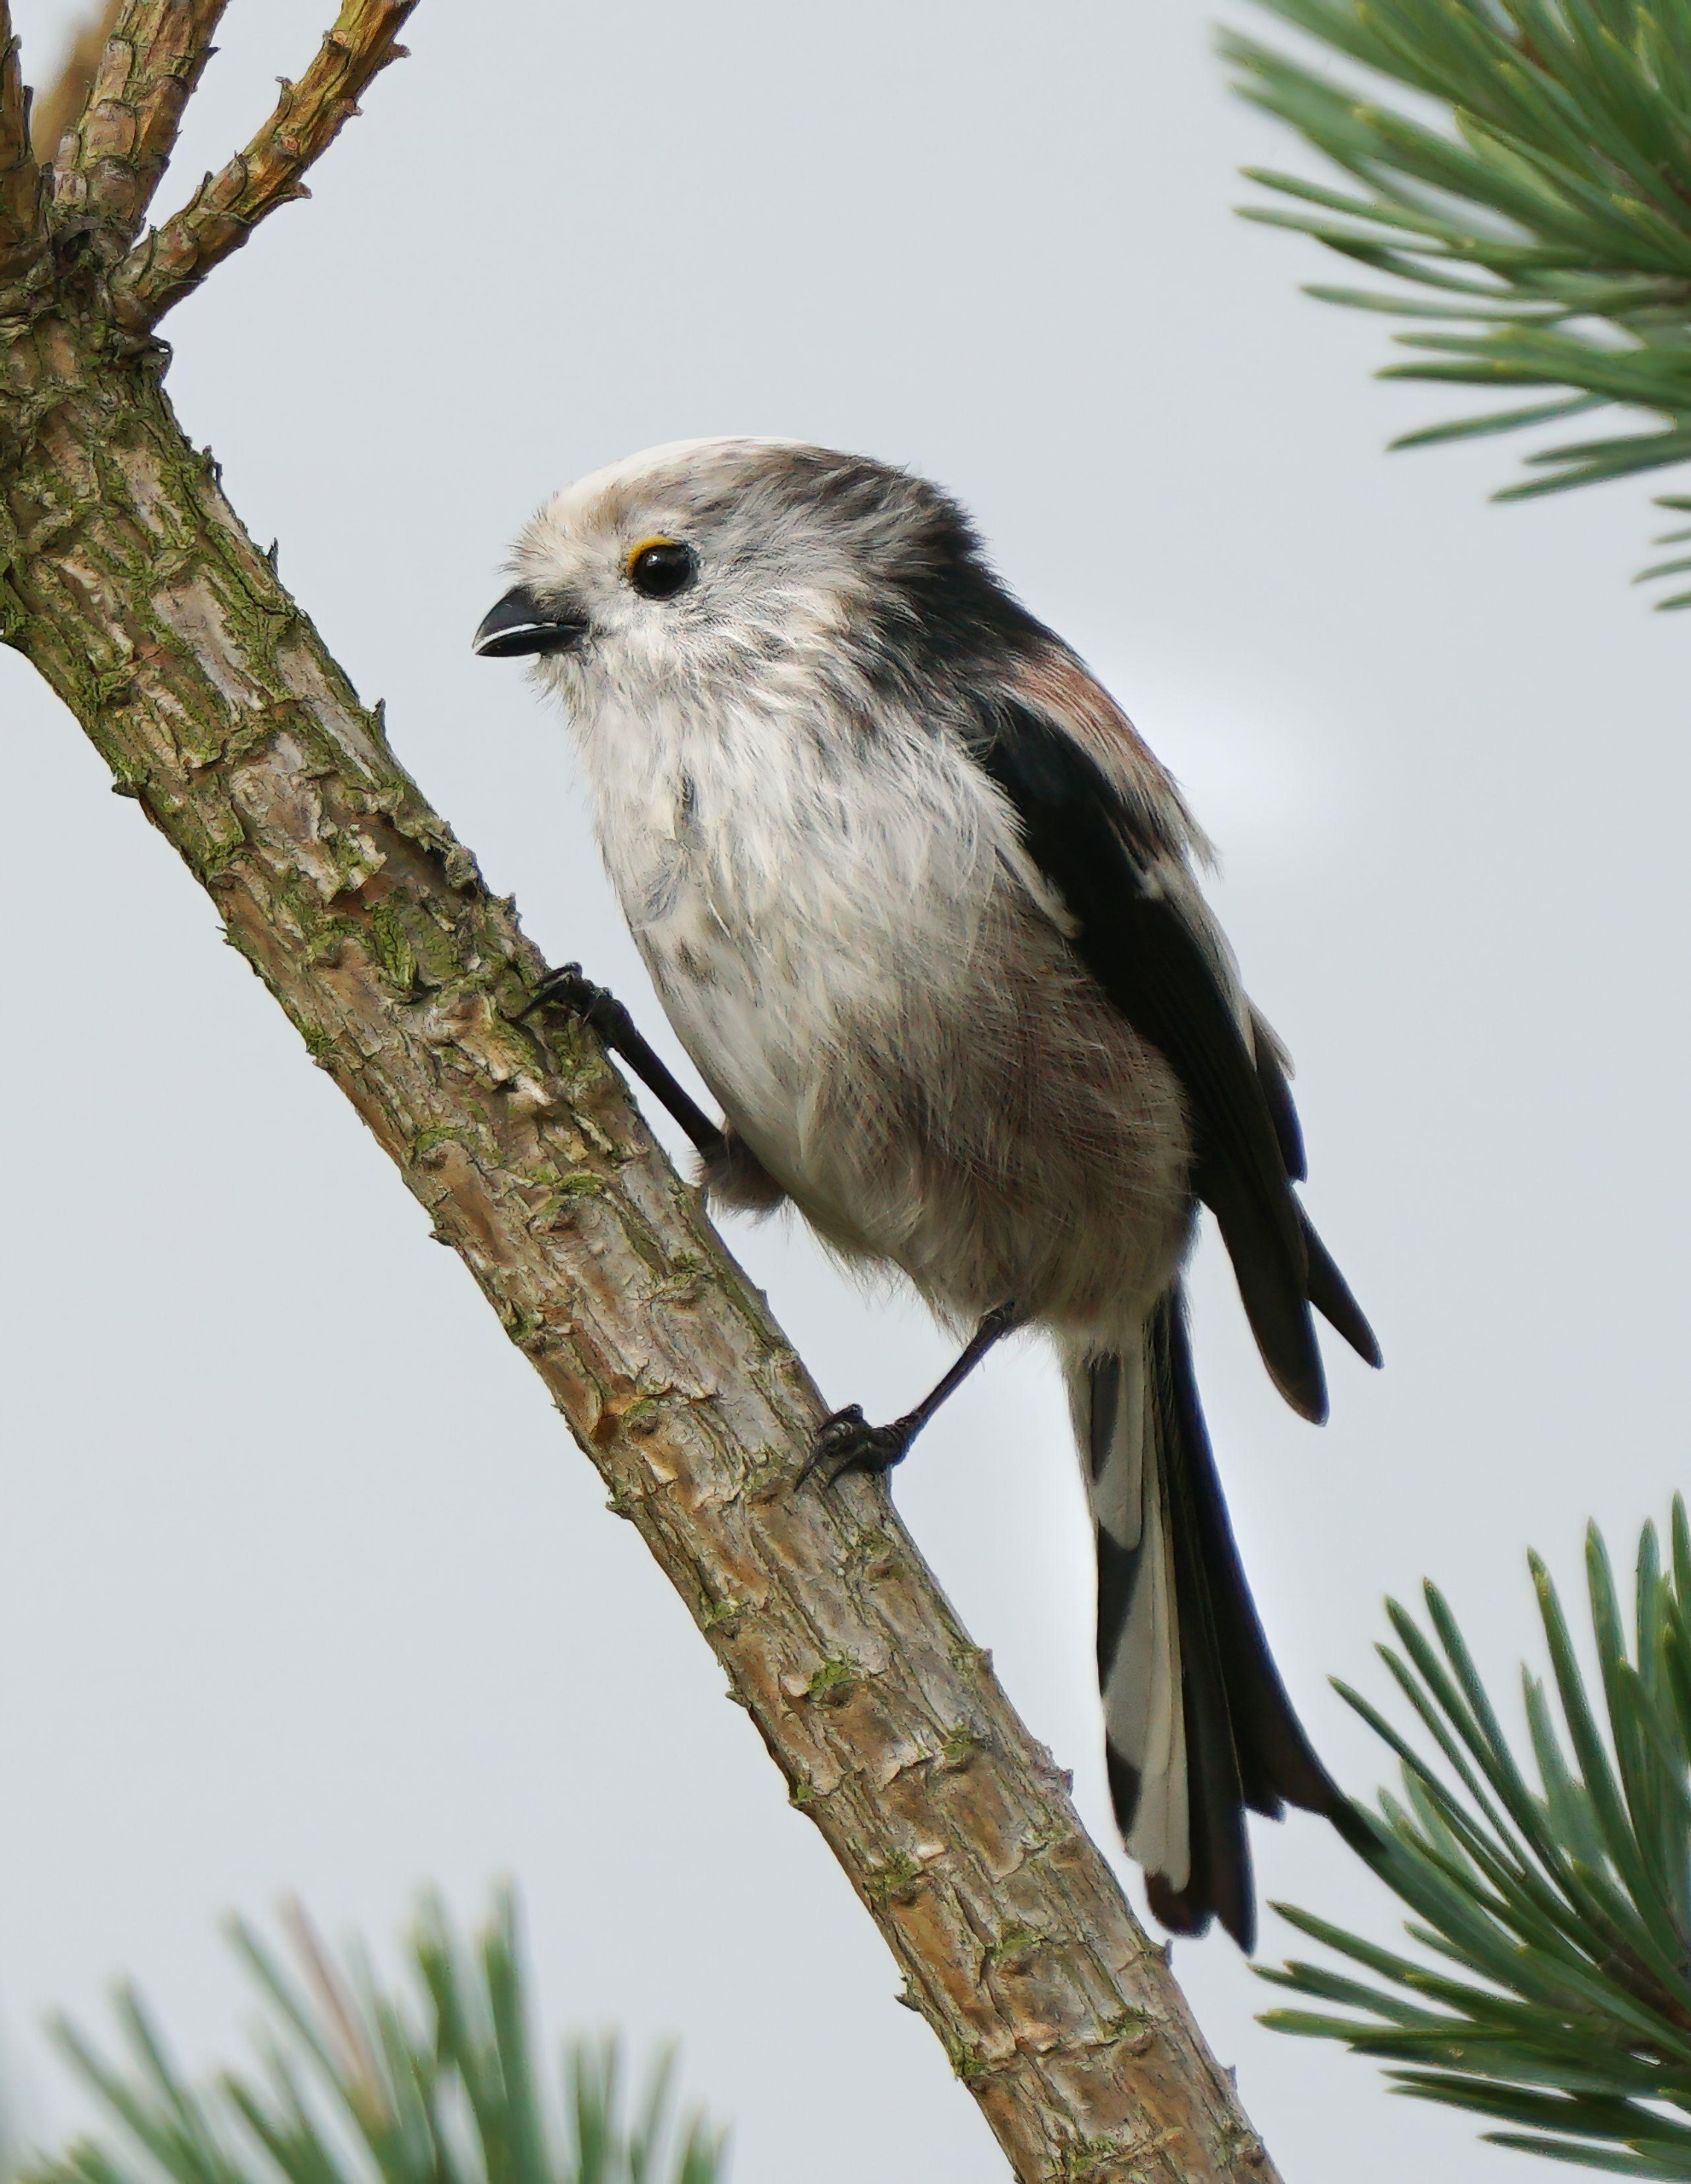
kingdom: Animalia
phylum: Chordata
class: Aves
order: Passeriformes
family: Aegithalidae
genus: Aegithalos
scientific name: Aegithalos caudatus
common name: Halemejse
